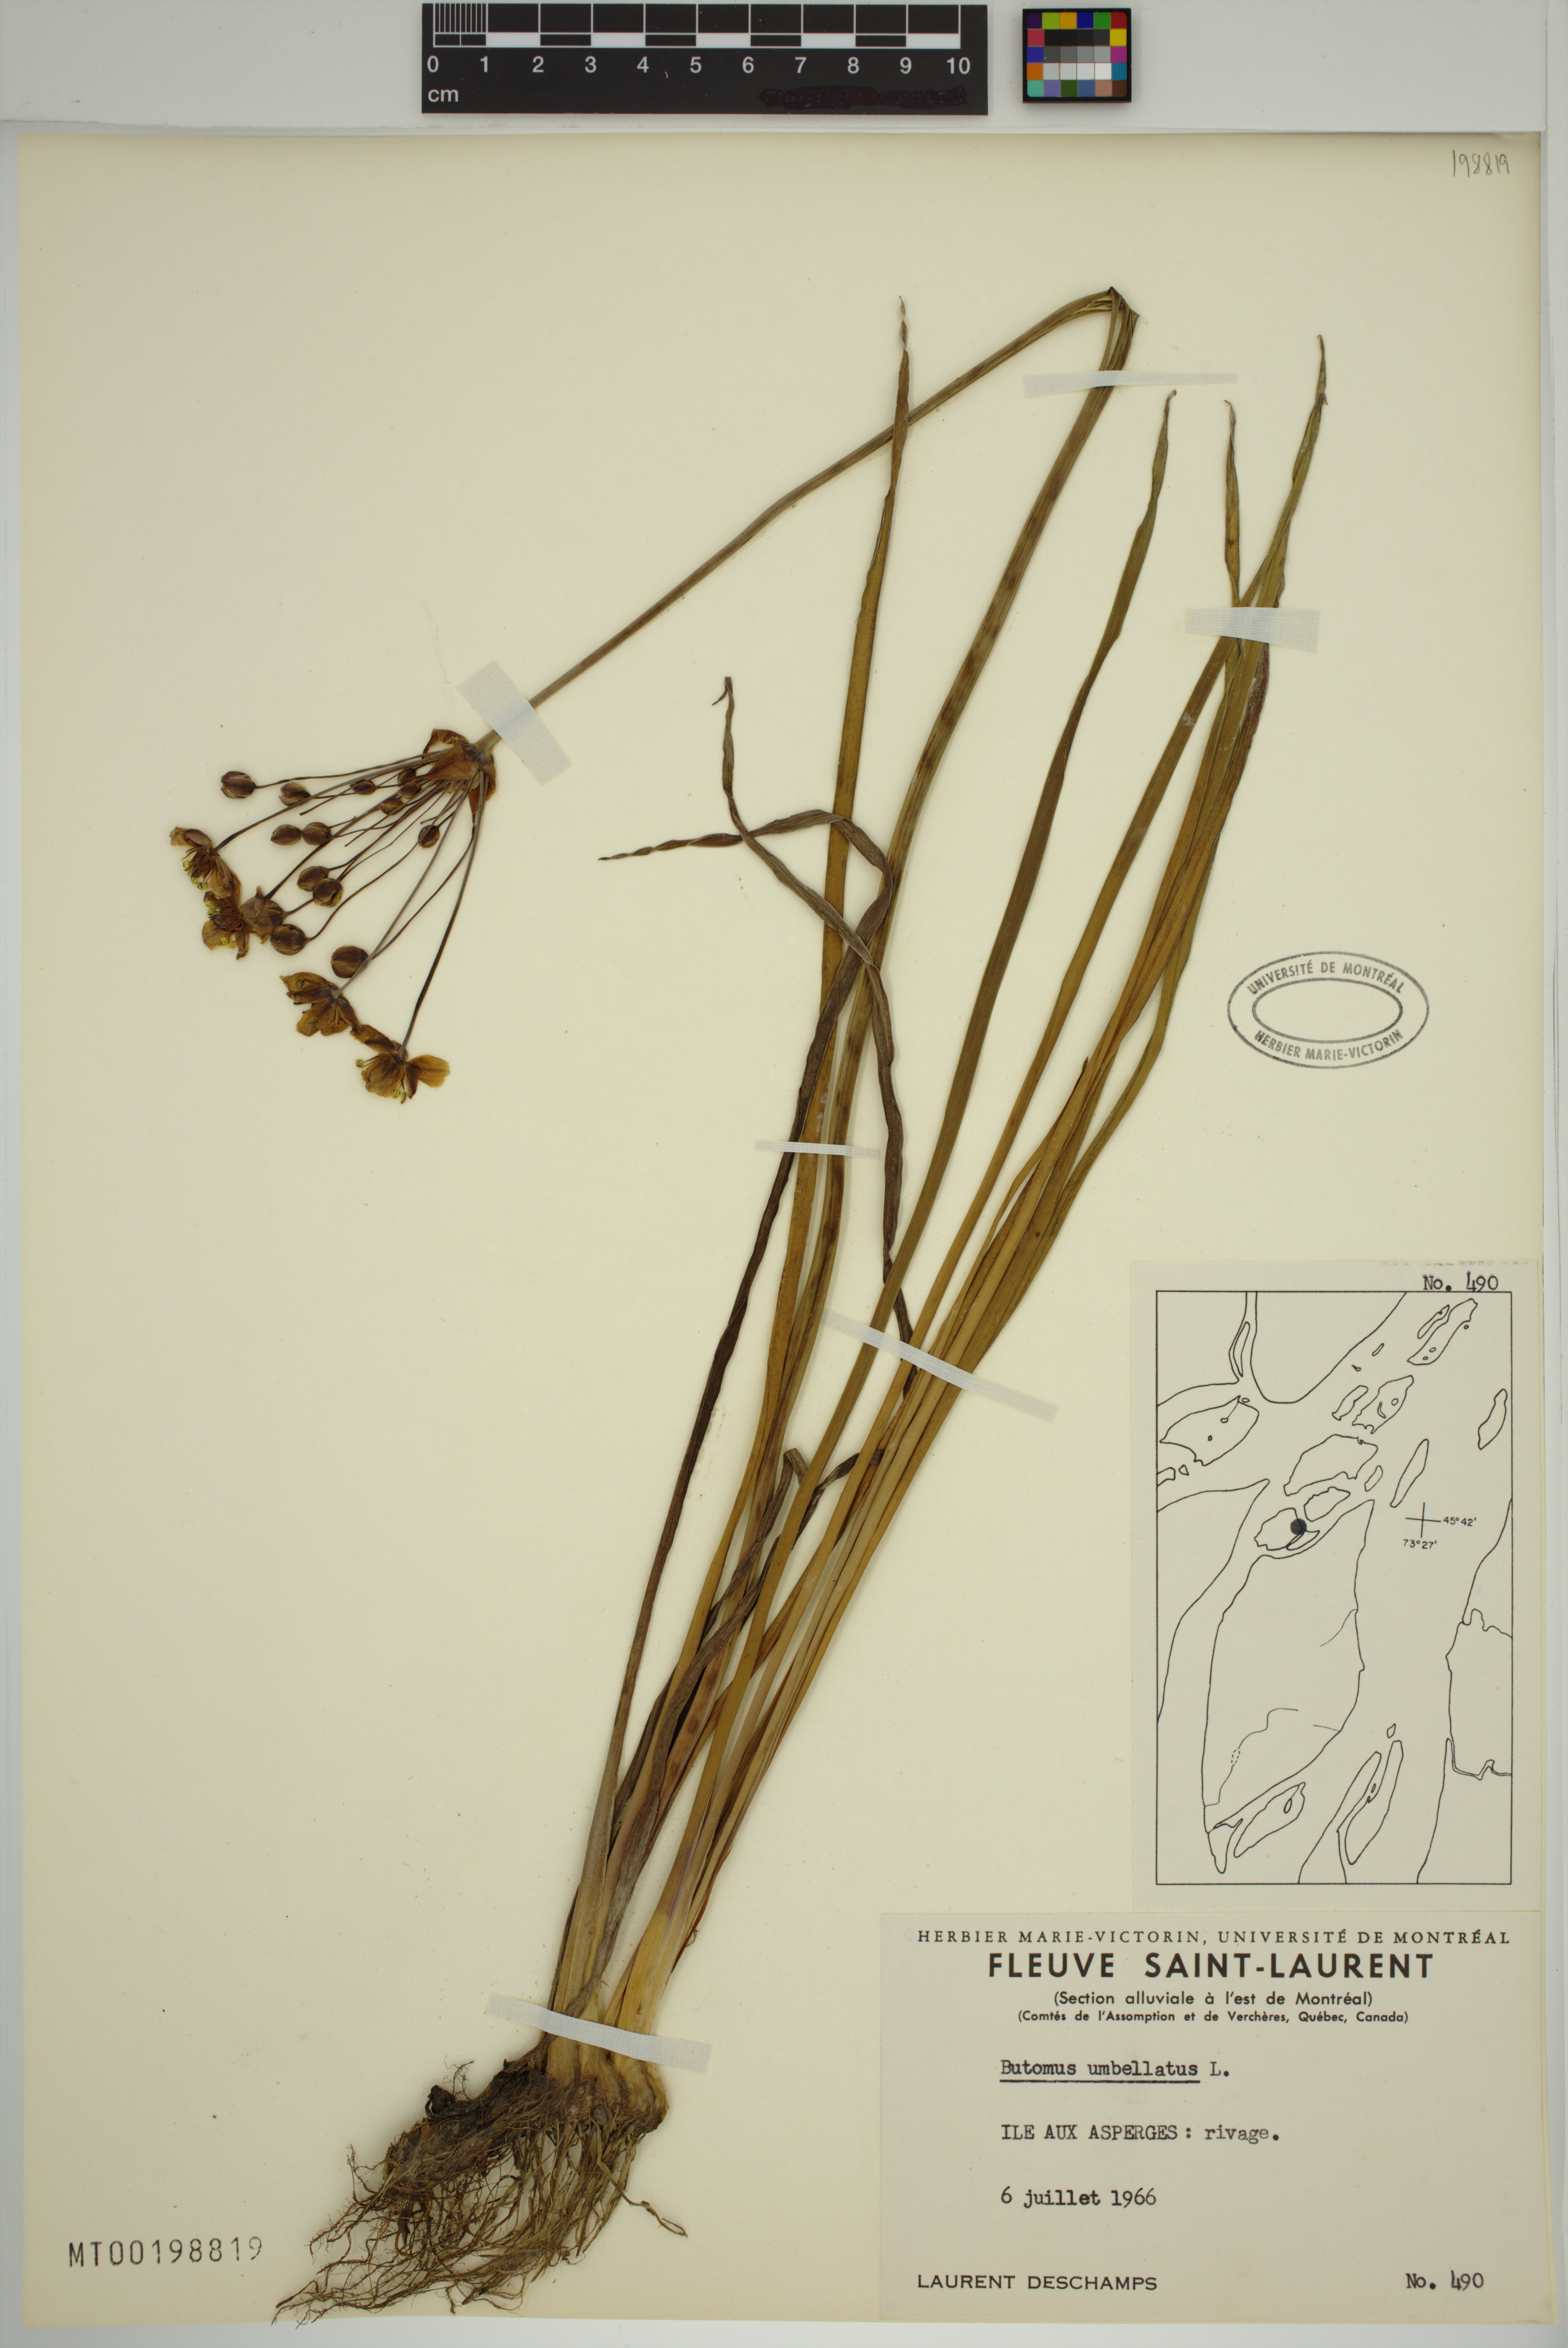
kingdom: Plantae
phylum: Tracheophyta
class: Liliopsida
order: Alismatales
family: Butomaceae
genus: Butomus
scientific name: Butomus umbellatus
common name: Flowering-rush
